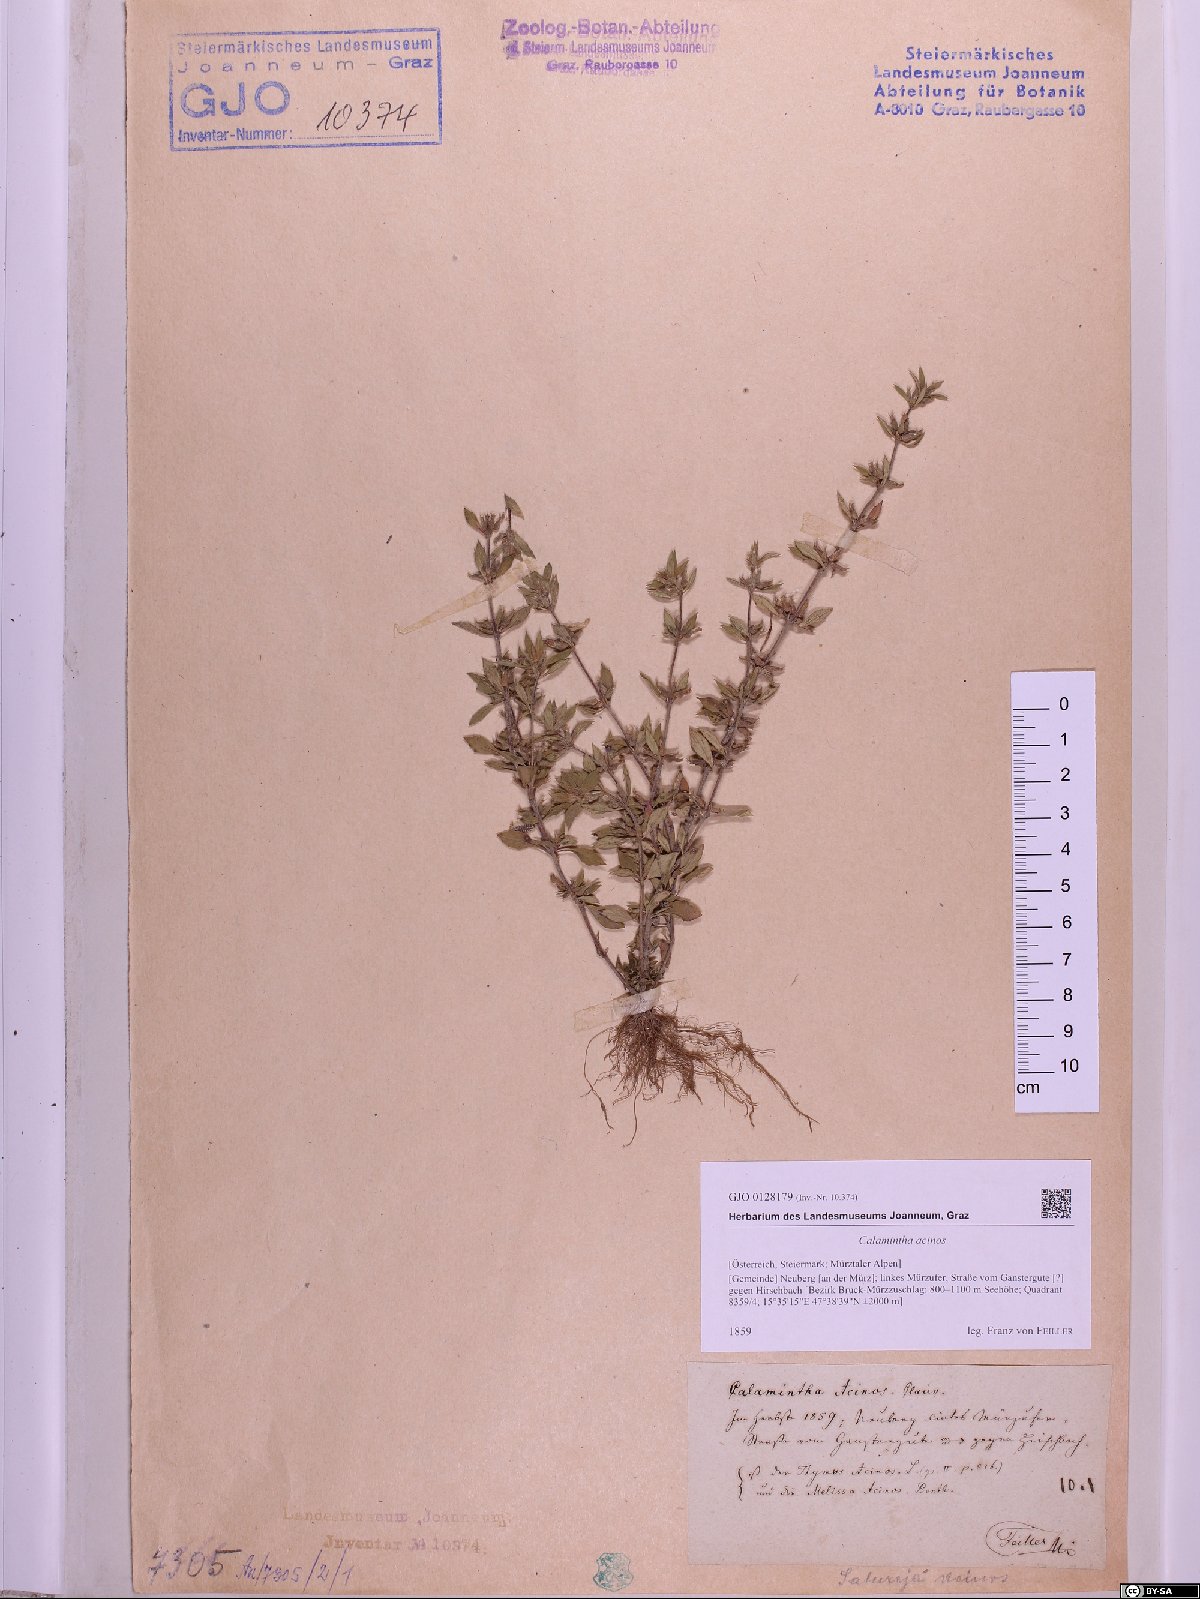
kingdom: Plantae
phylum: Tracheophyta
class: Magnoliopsida
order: Lamiales
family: Lamiaceae
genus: Clinopodium
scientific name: Clinopodium acinos
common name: Basil thyme
